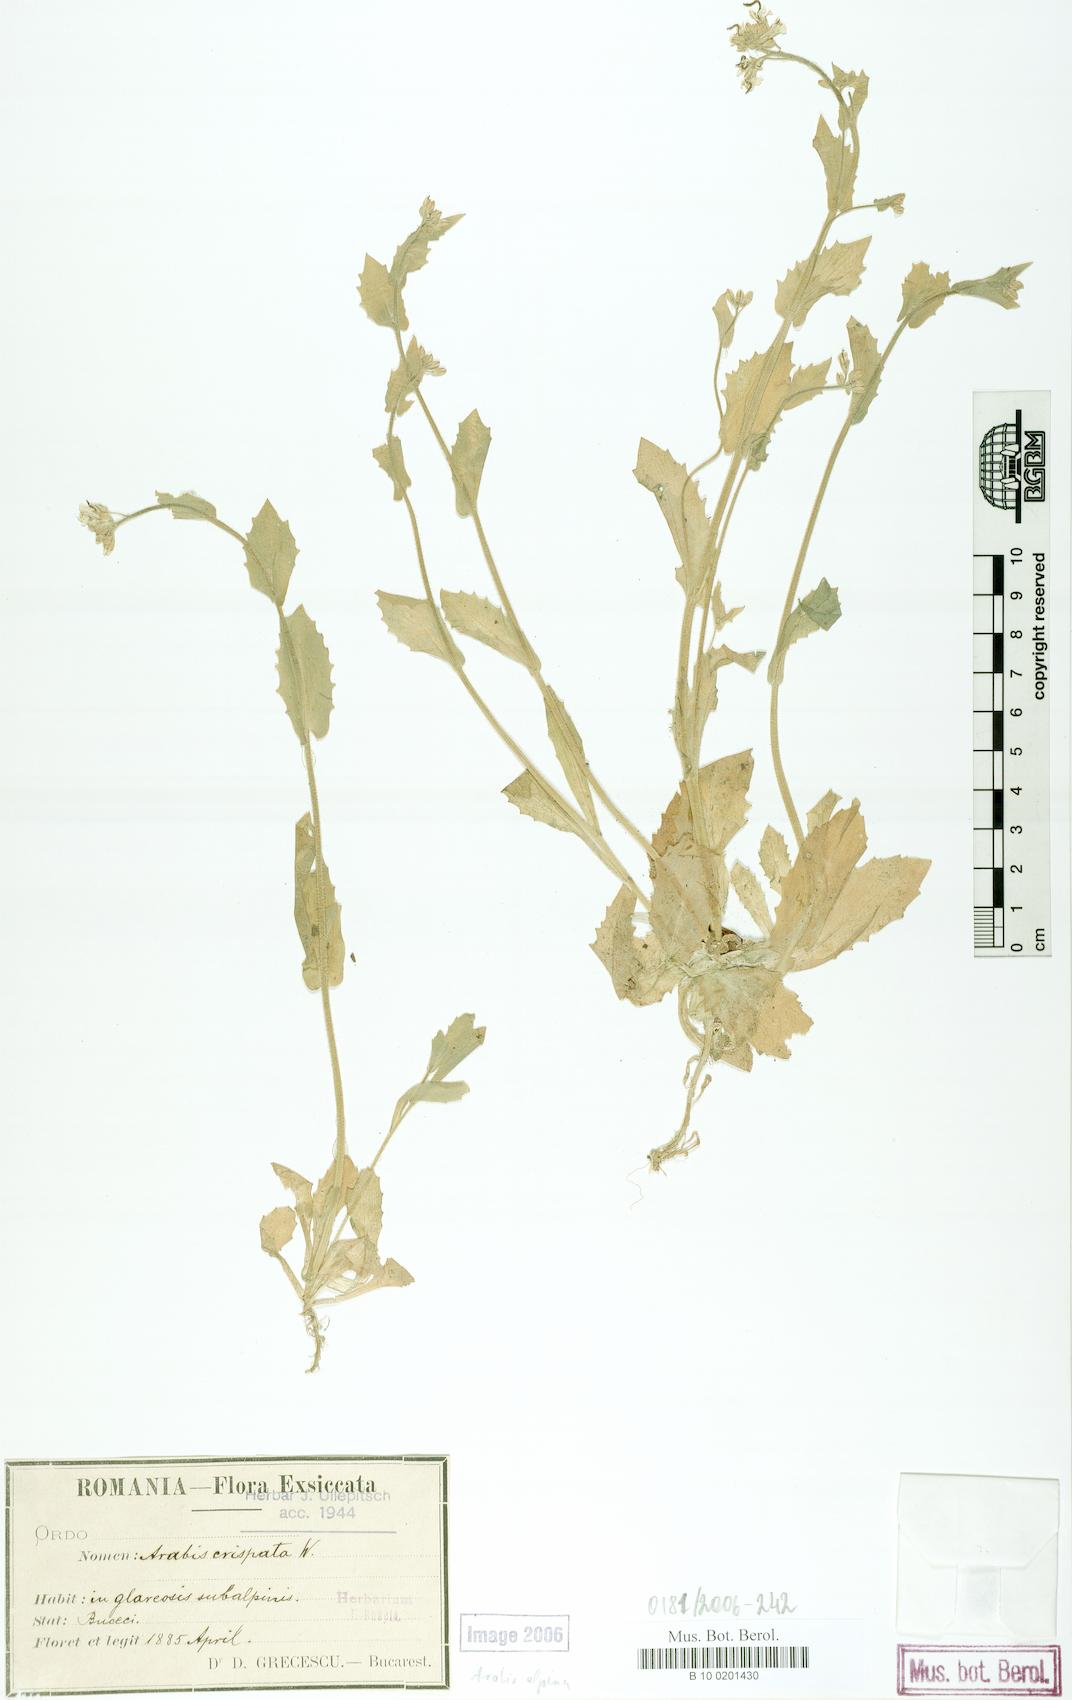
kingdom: Plantae
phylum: Tracheophyta
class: Magnoliopsida
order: Brassicales
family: Brassicaceae
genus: Arabis
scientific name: Arabis alpina
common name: Alpine rock-cress
